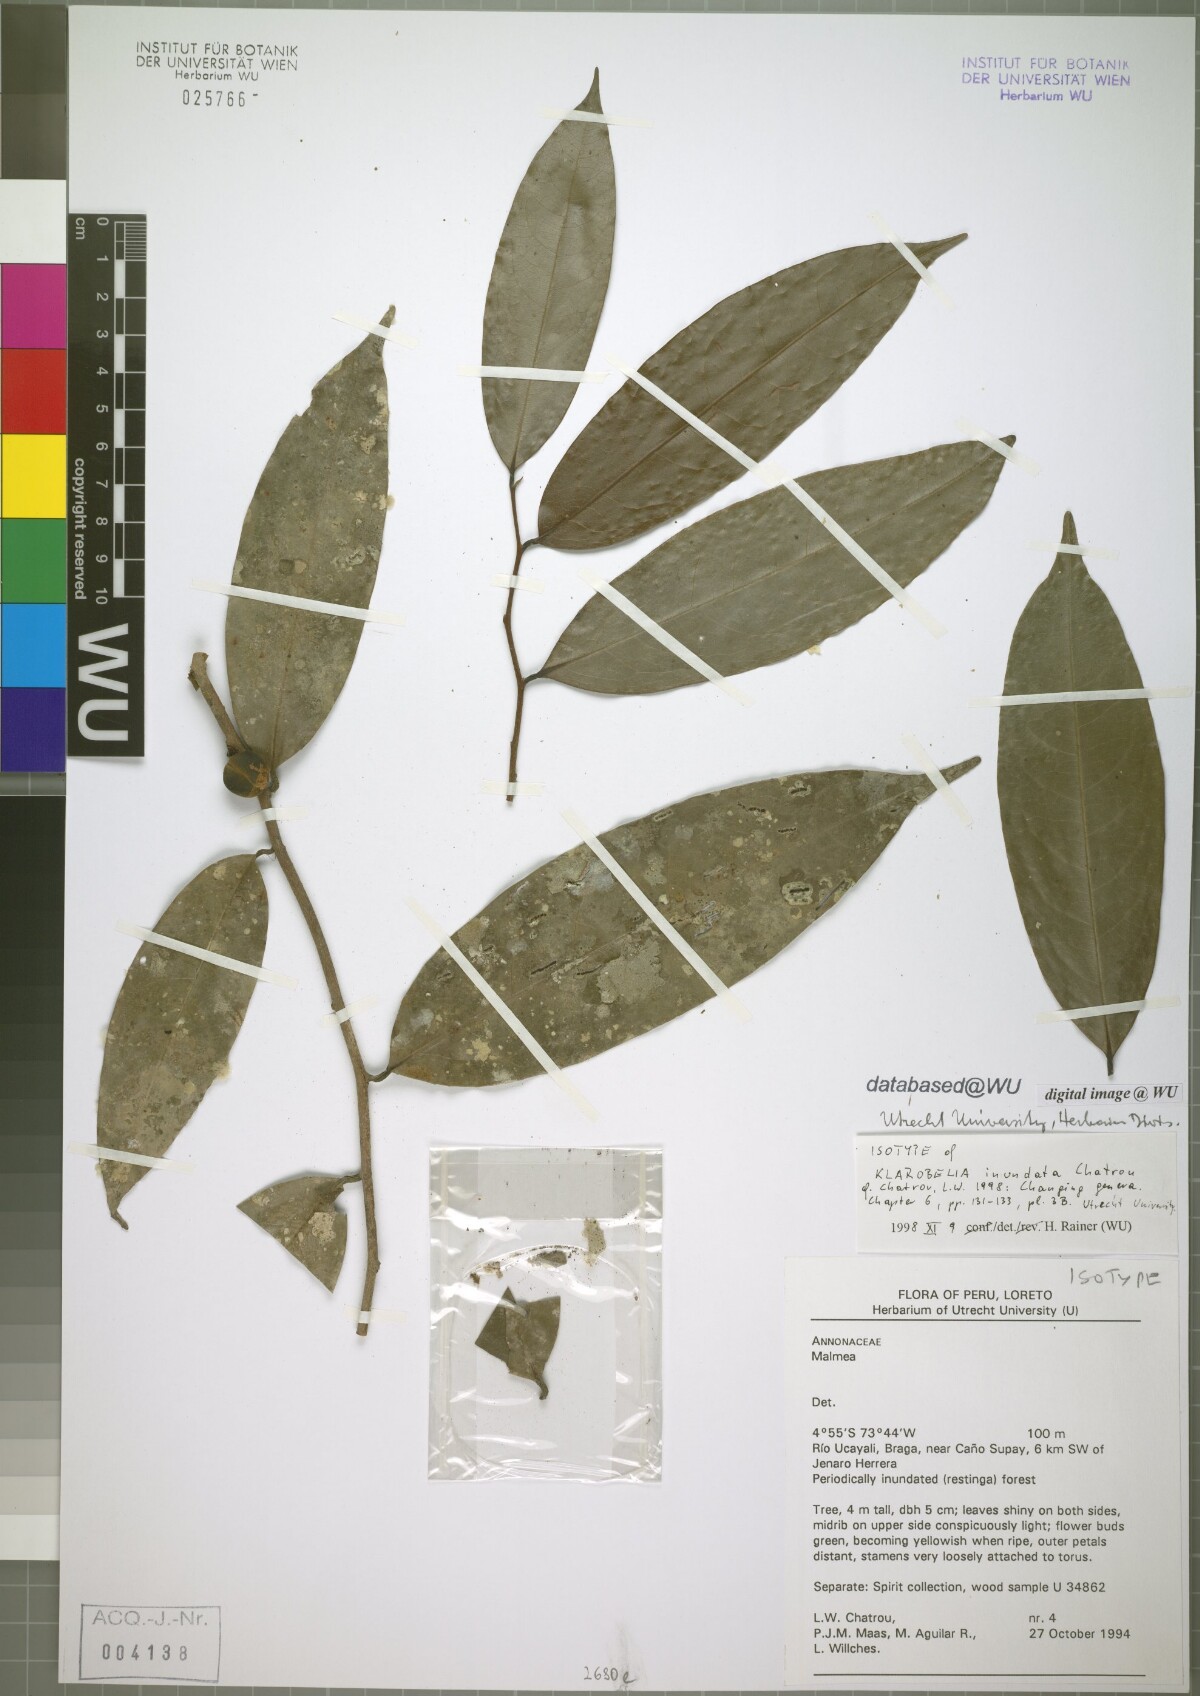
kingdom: Plantae
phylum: Tracheophyta
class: Magnoliopsida
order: Magnoliales
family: Annonaceae
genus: Klarobelia
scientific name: Klarobelia inundata
